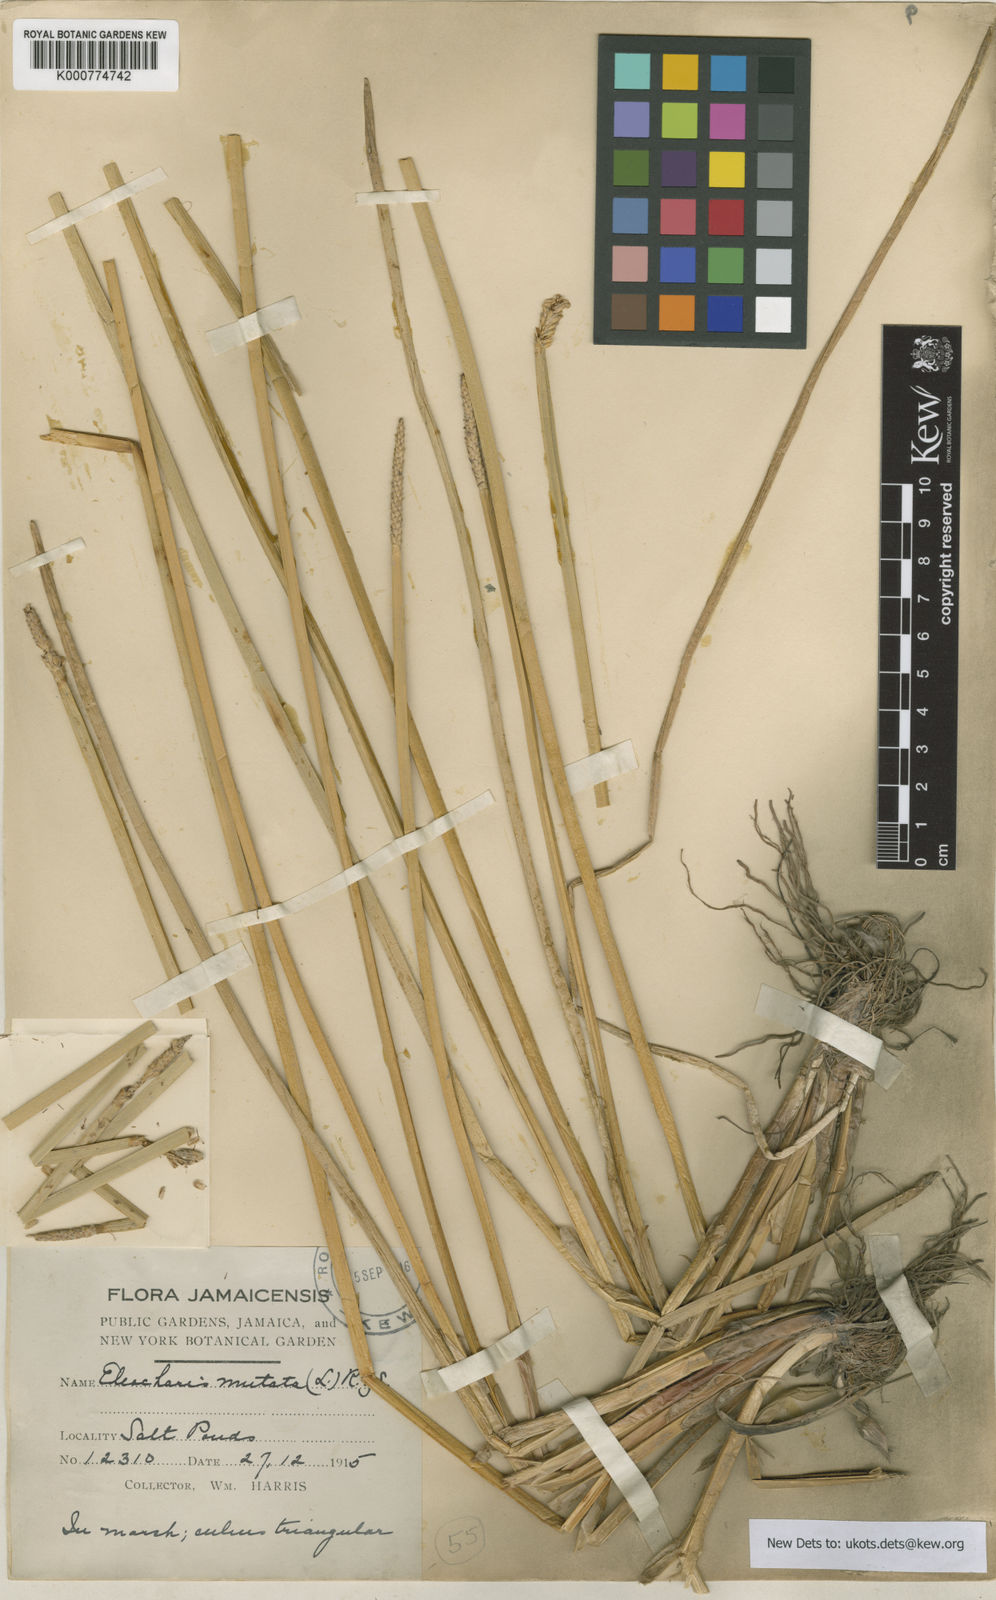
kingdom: Plantae
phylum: Tracheophyta
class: Liliopsida
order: Poales
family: Cyperaceae
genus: Eleocharis
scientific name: Eleocharis mutata
